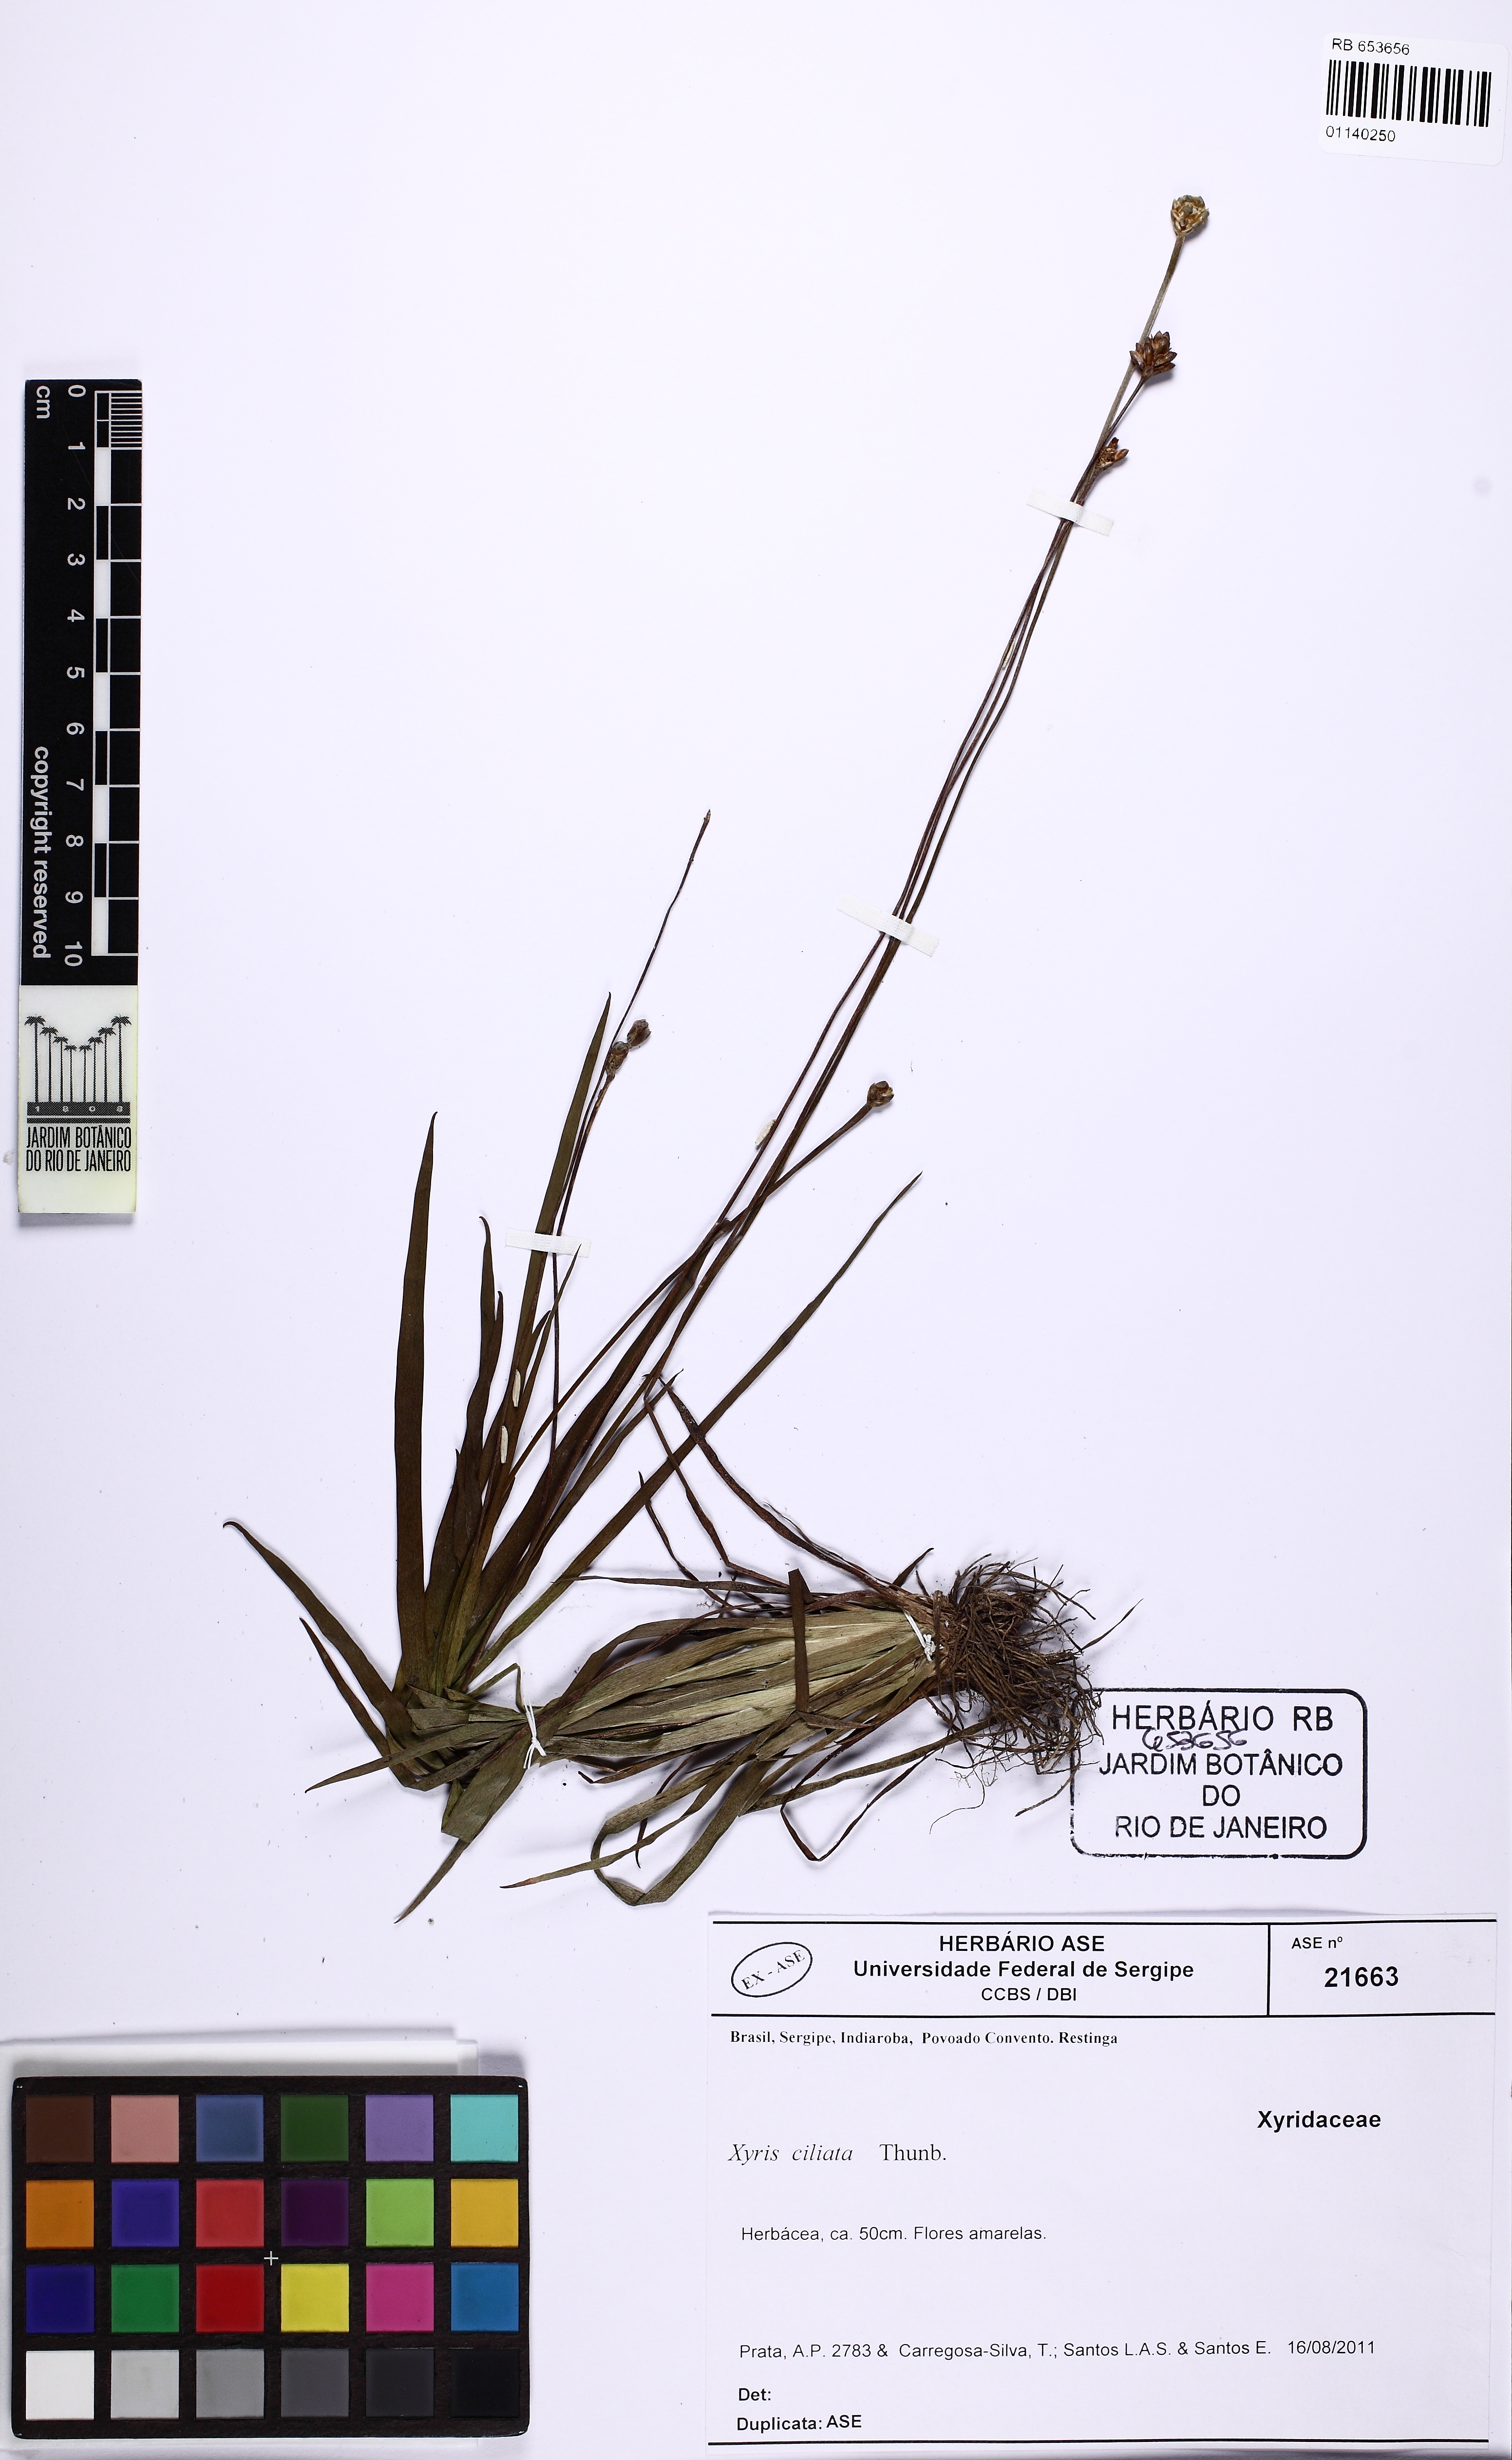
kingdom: Plantae
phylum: Tracheophyta
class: Liliopsida
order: Poales
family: Xyridaceae
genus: Xyris
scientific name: Xyris ciliata
